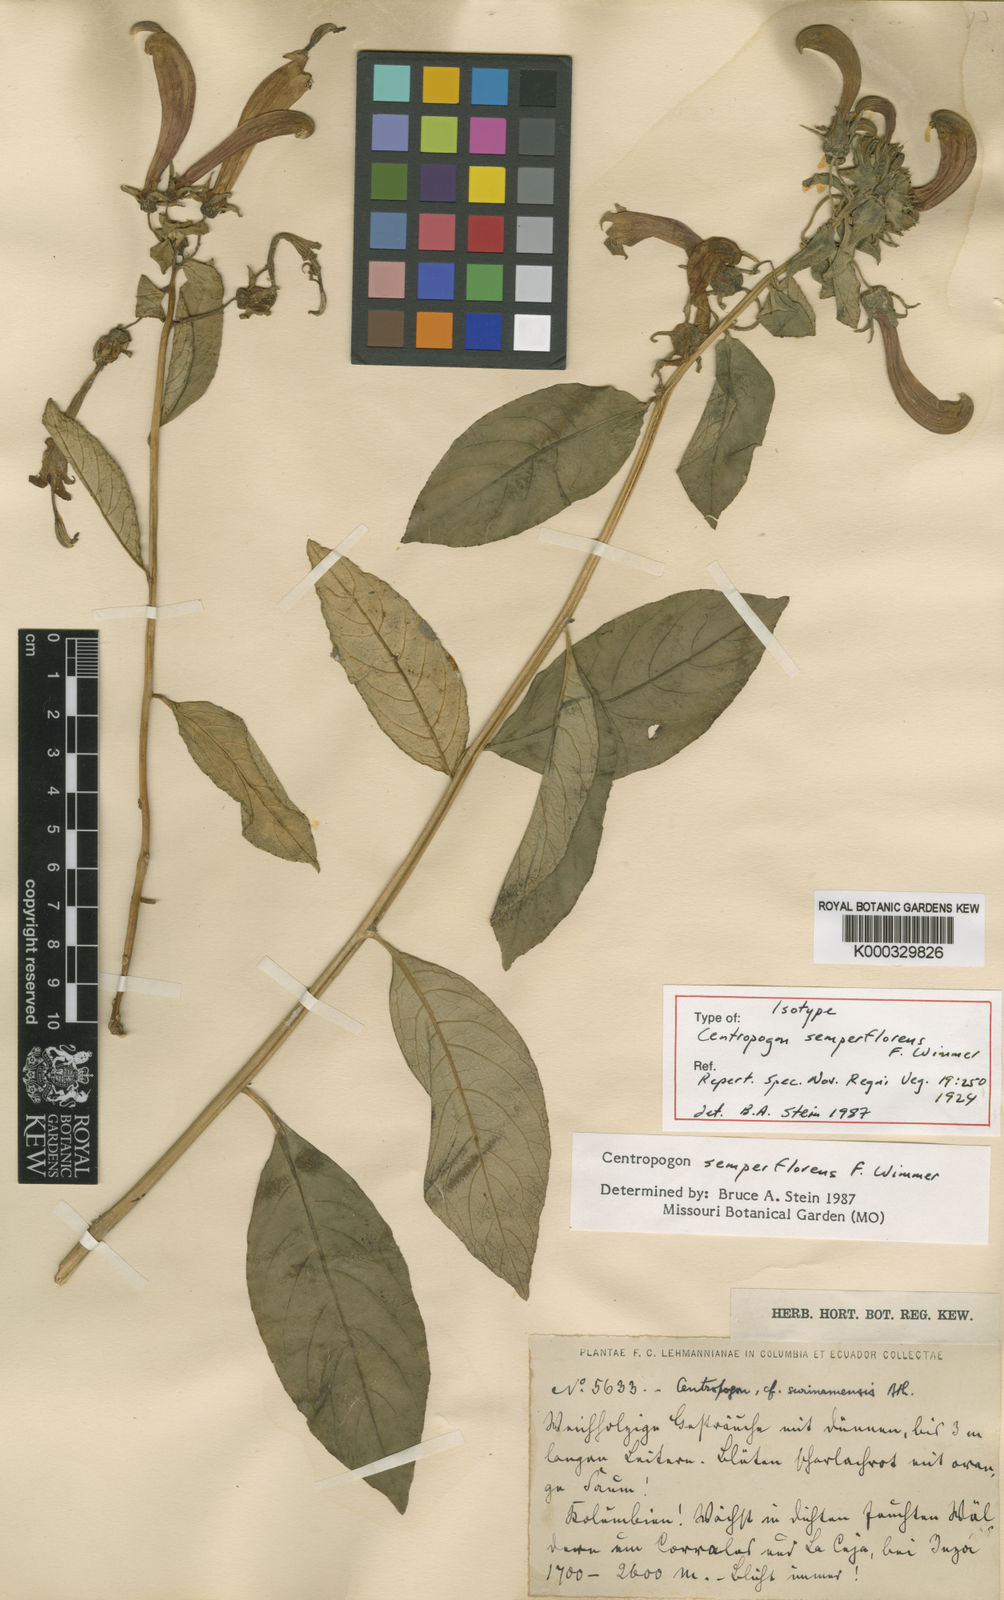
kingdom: Plantae
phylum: Tracheophyta
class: Magnoliopsida
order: Asterales
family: Campanulaceae
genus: Centropogon
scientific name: Centropogon solanifolius
